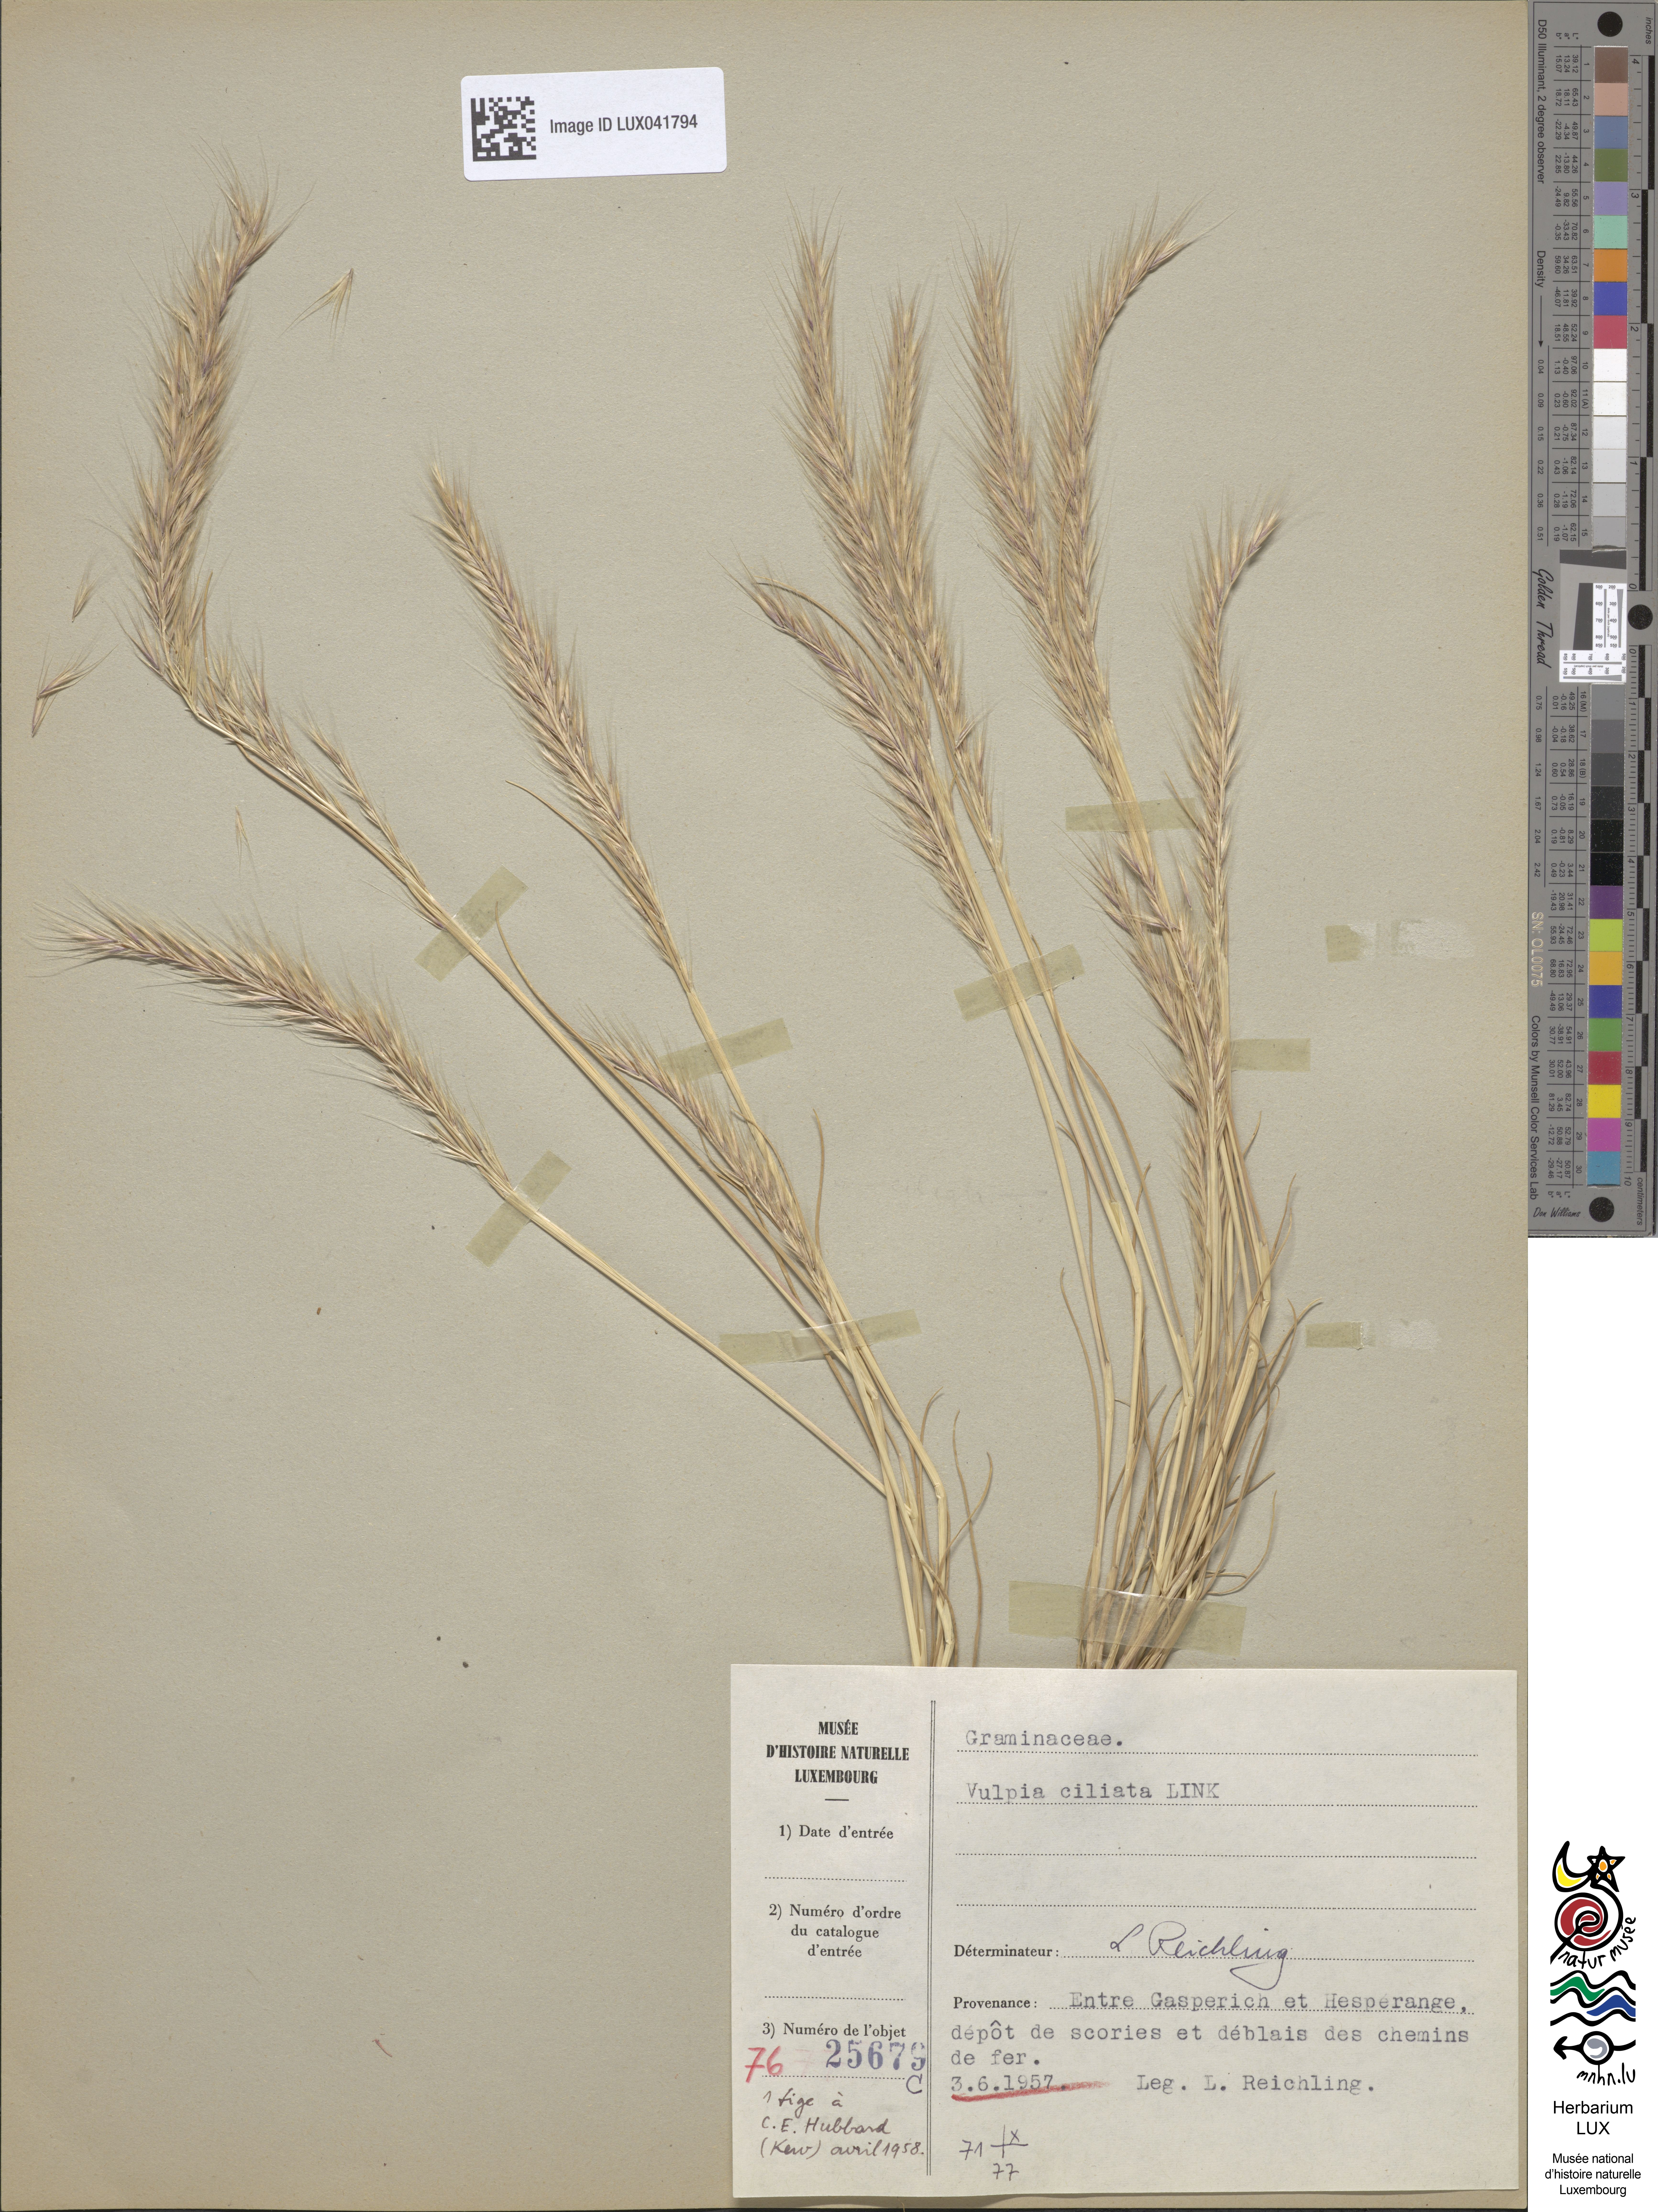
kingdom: Plantae
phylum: Tracheophyta
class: Liliopsida
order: Poales
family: Poaceae
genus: Festuca
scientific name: Festuca ambigua
